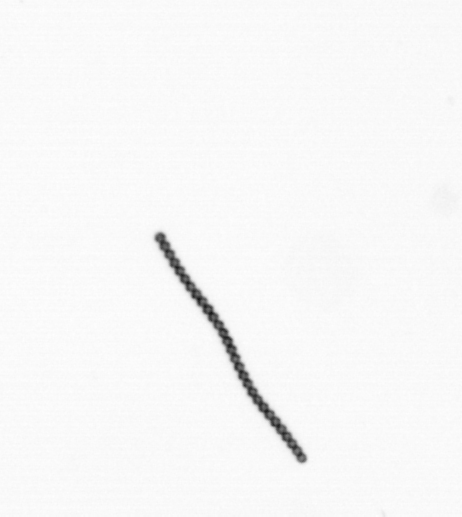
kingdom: Chromista
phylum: Ochrophyta
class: Bacillariophyceae
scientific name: Bacillariophyceae
